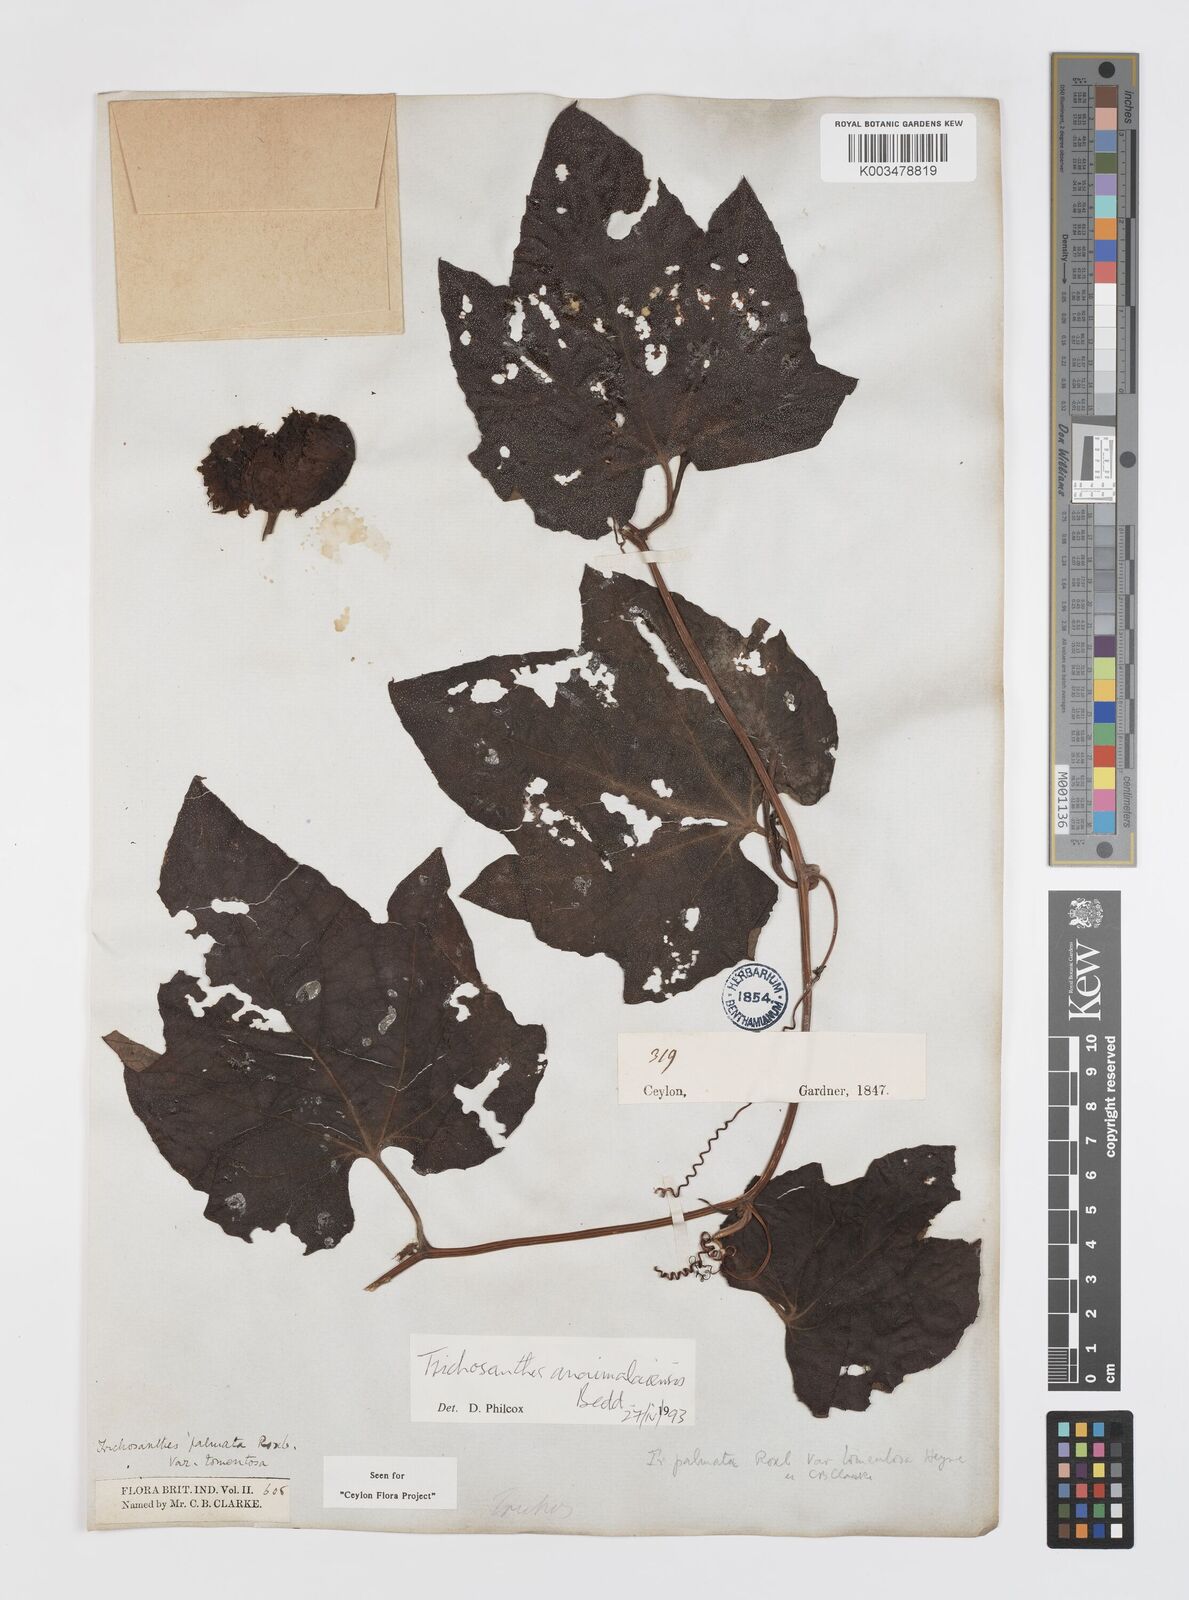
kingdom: Plantae
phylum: Tracheophyta
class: Magnoliopsida
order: Cucurbitales
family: Cucurbitaceae
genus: Trichosanthes
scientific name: Trichosanthes anaimalaiensis
